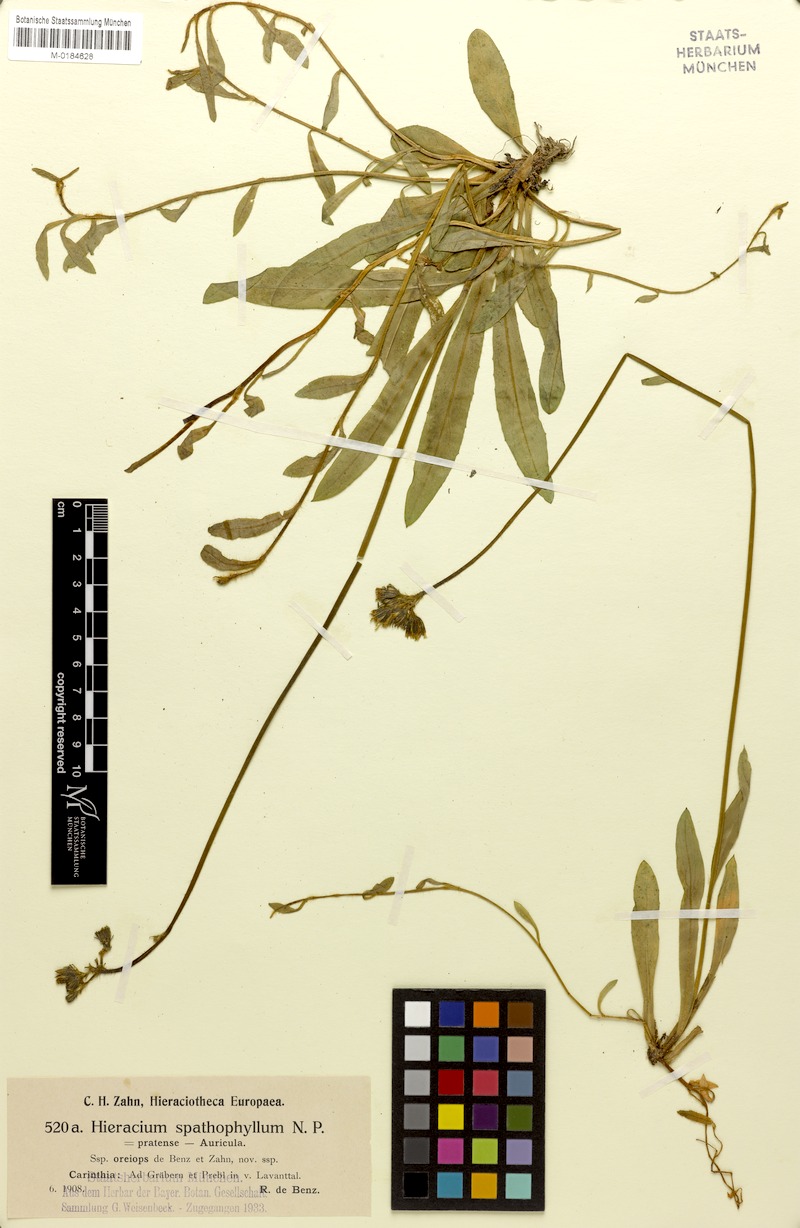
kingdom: Plantae
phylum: Tracheophyta
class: Magnoliopsida
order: Asterales
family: Asteraceae
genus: Pilosella
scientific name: Pilosella floribunda
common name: Glaucous hawkweed
